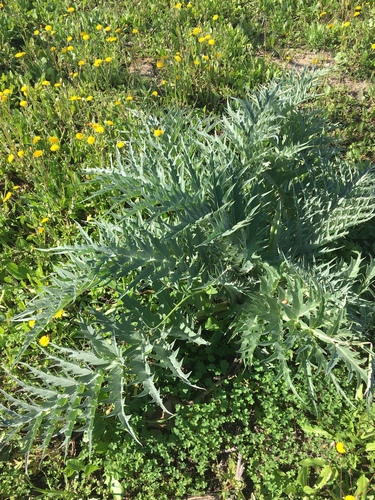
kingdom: Plantae
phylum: Tracheophyta
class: Magnoliopsida
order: Asterales
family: Asteraceae
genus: Cynara
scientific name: Cynara cardunculus
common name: Globe artichoke
